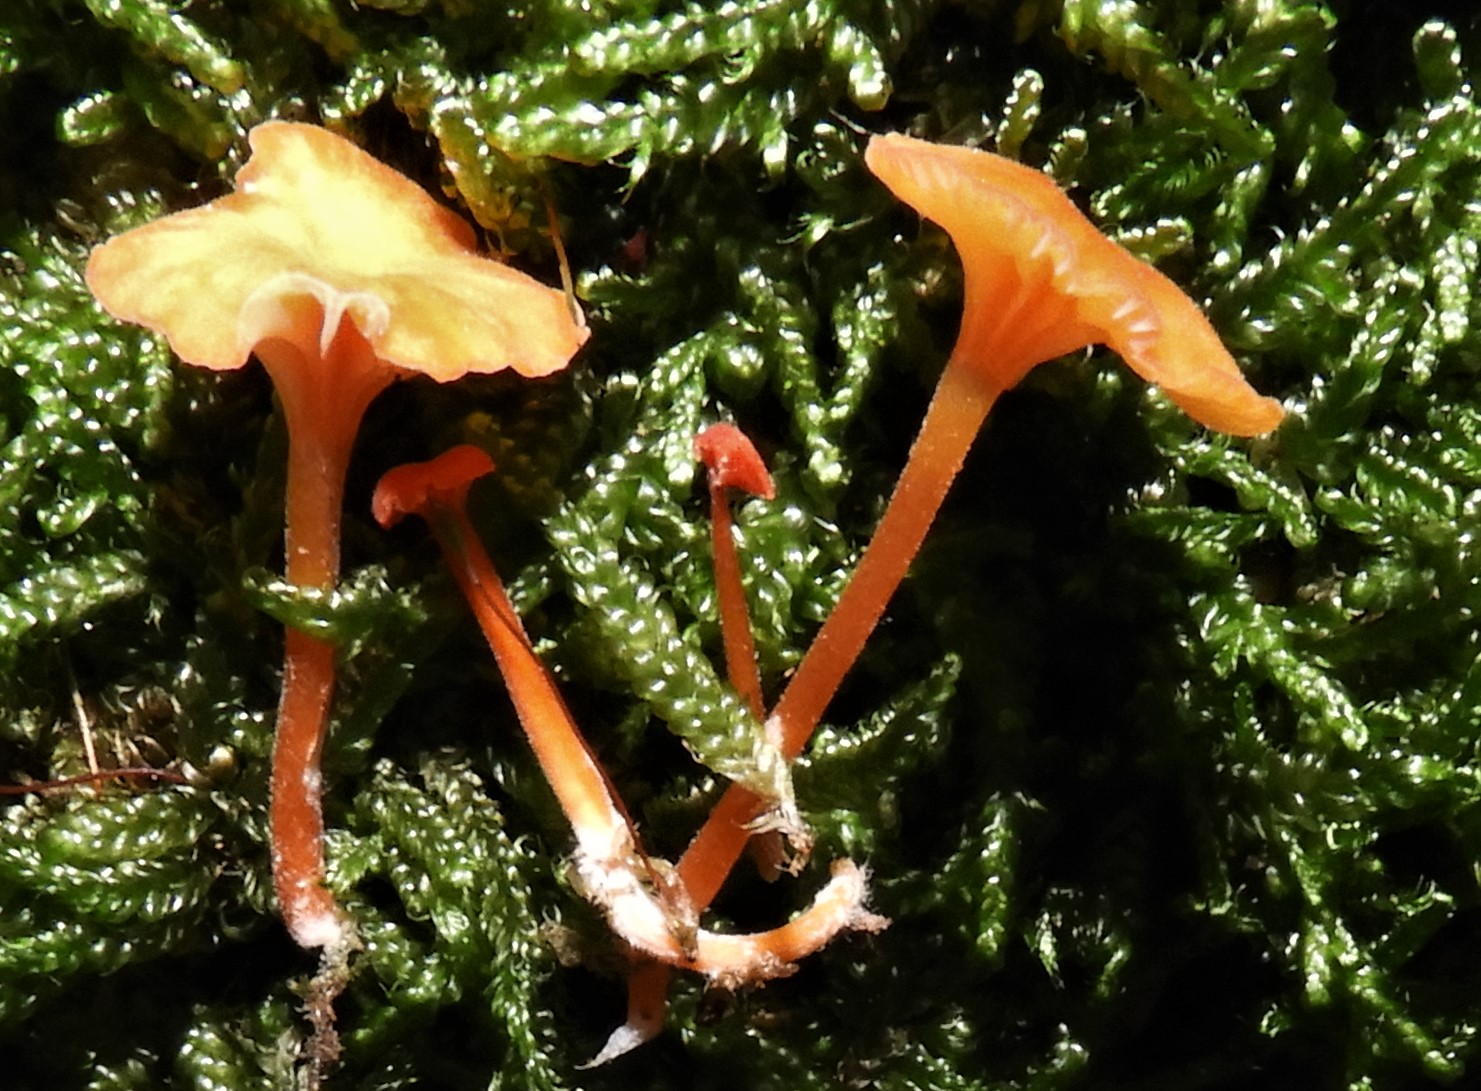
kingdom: Fungi
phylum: Basidiomycota
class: Agaricomycetes
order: Hymenochaetales
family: Rickenellaceae
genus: Rickenella
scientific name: Rickenella fibula
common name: orange mosnavlehat
